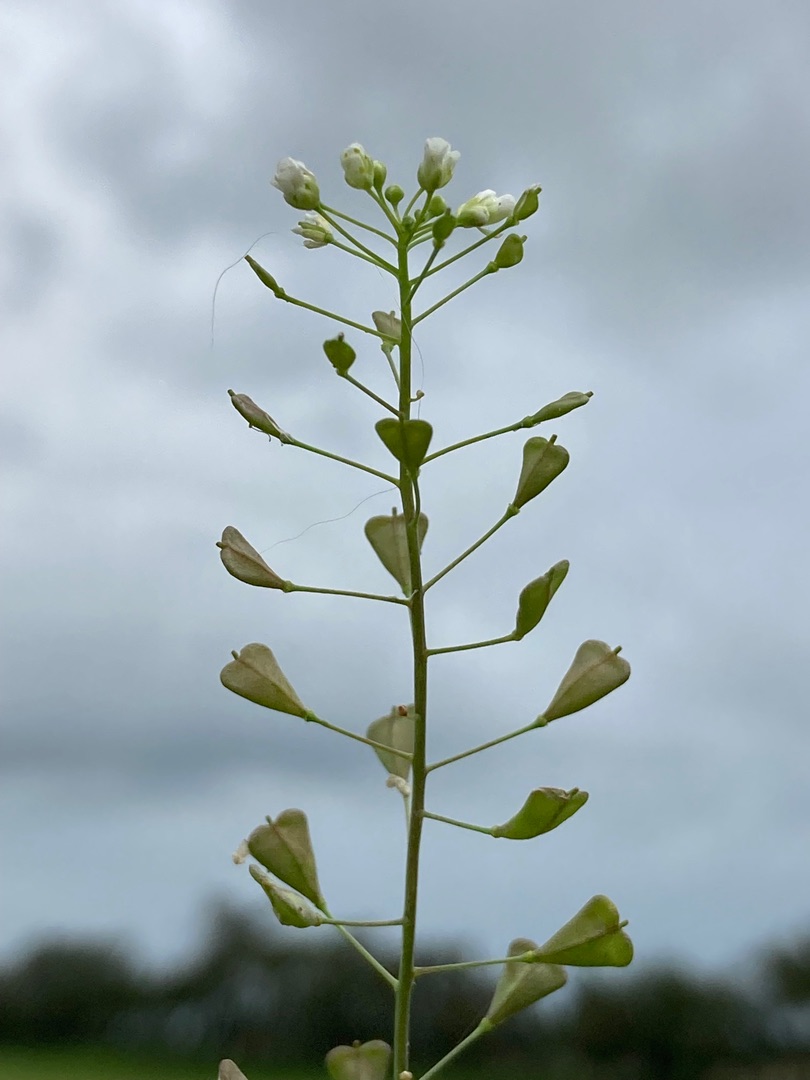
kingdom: Plantae
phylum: Tracheophyta
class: Magnoliopsida
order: Brassicales
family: Brassicaceae
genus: Capsella
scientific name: Capsella bursa-pastoris
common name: Hyrdetaske
